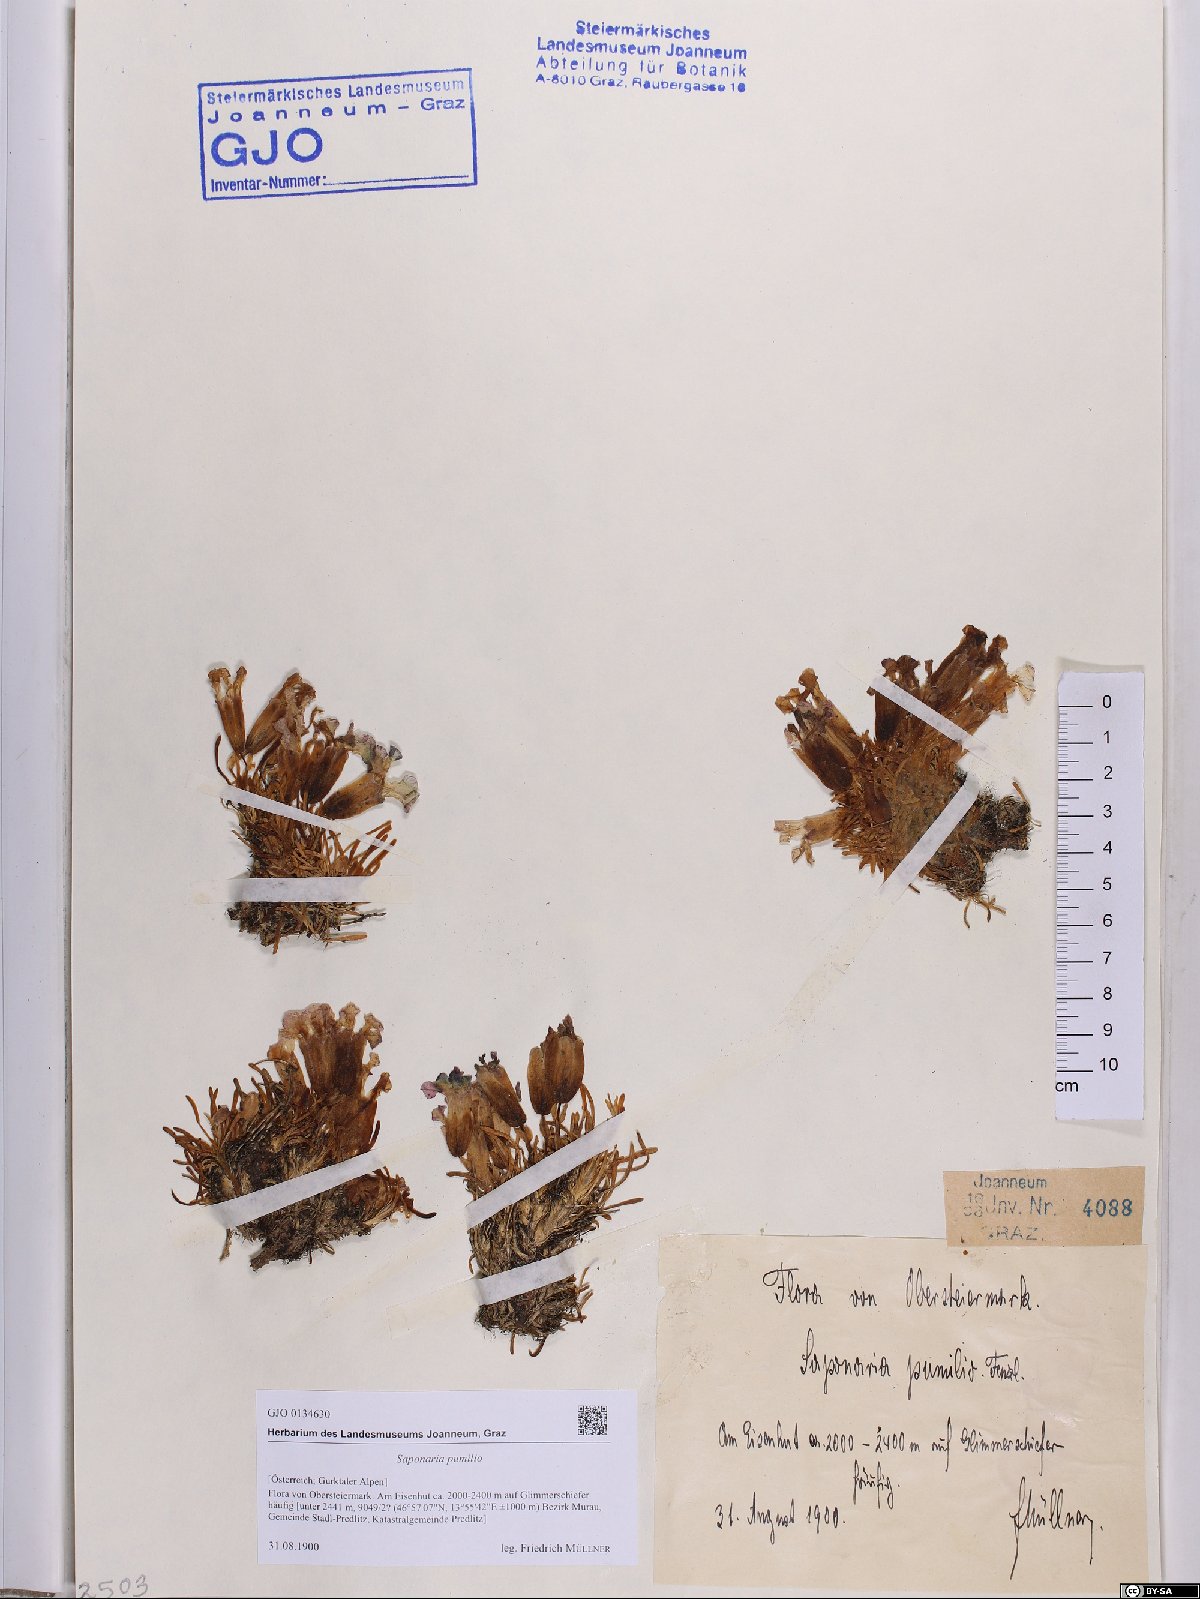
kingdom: Plantae
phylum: Tracheophyta
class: Magnoliopsida
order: Caryophyllales
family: Caryophyllaceae
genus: Saponaria
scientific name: Saponaria pumila
